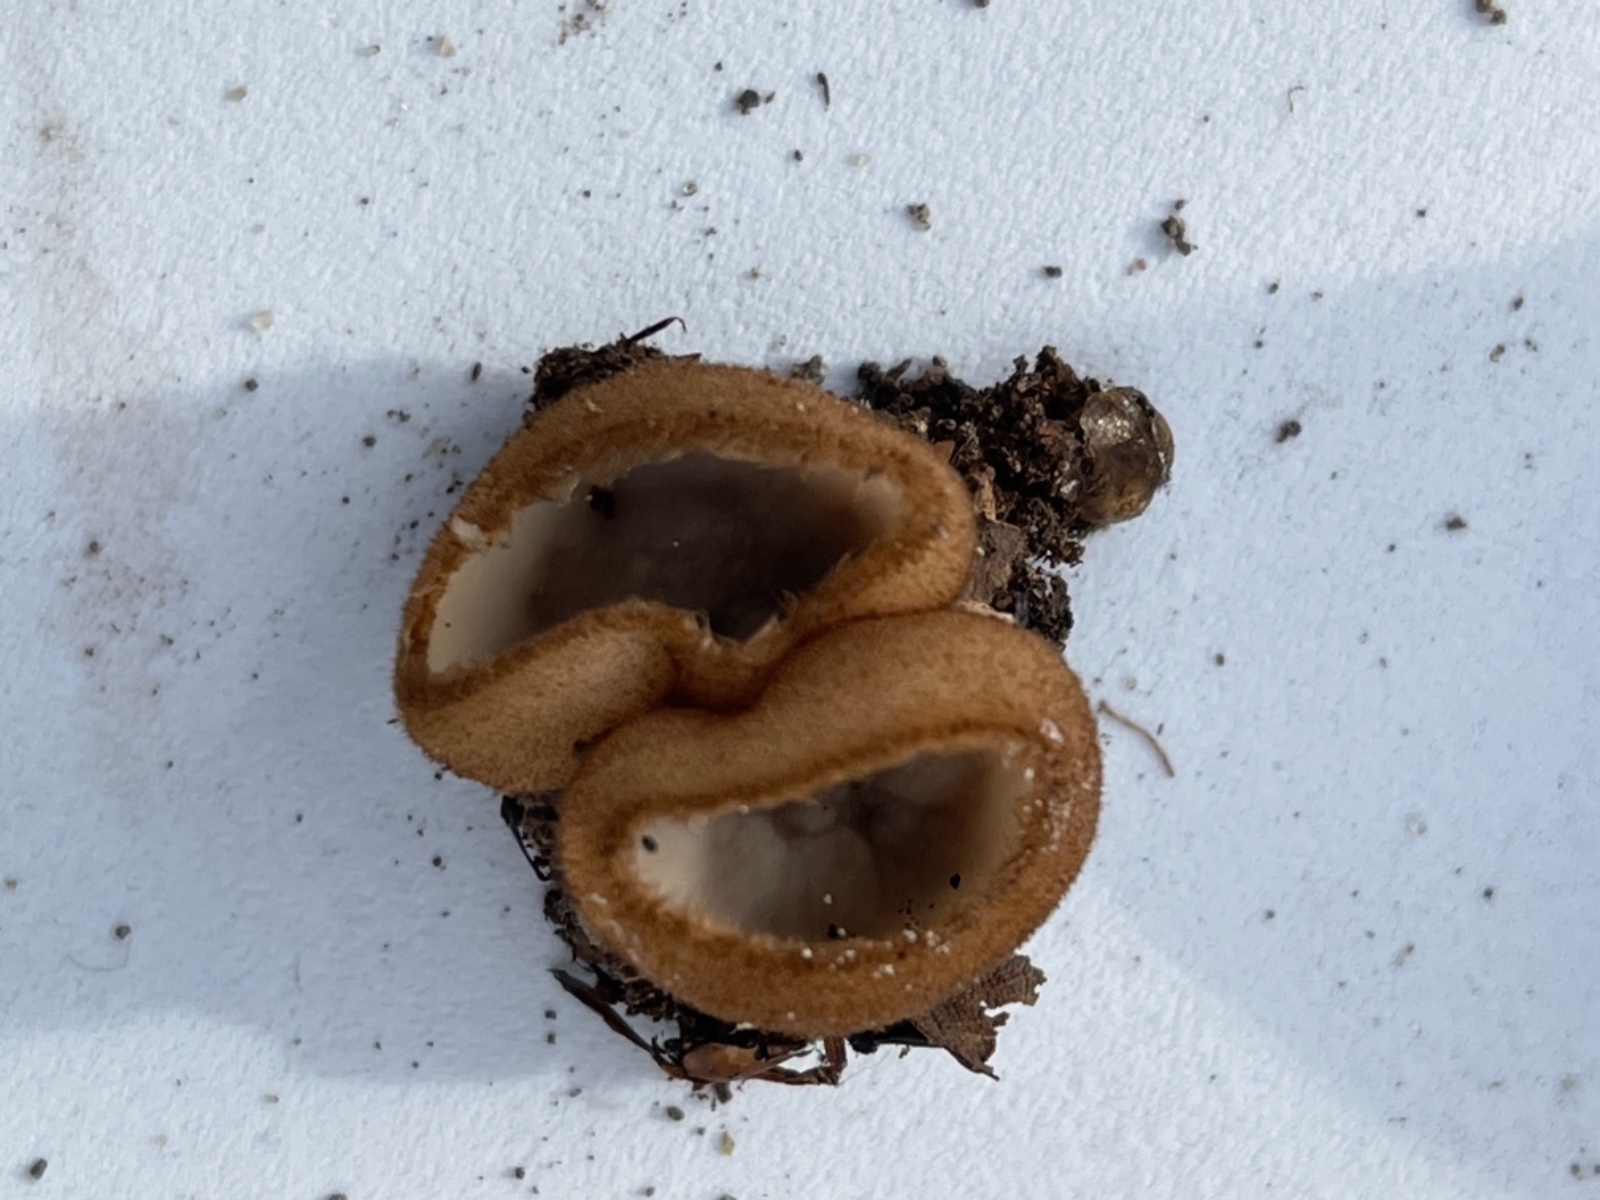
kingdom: Fungi
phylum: Ascomycota
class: Pezizomycetes
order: Pezizales
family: Pyronemataceae
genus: Humaria
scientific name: Humaria hemisphaerica
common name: halvkugleformet børstebæger
